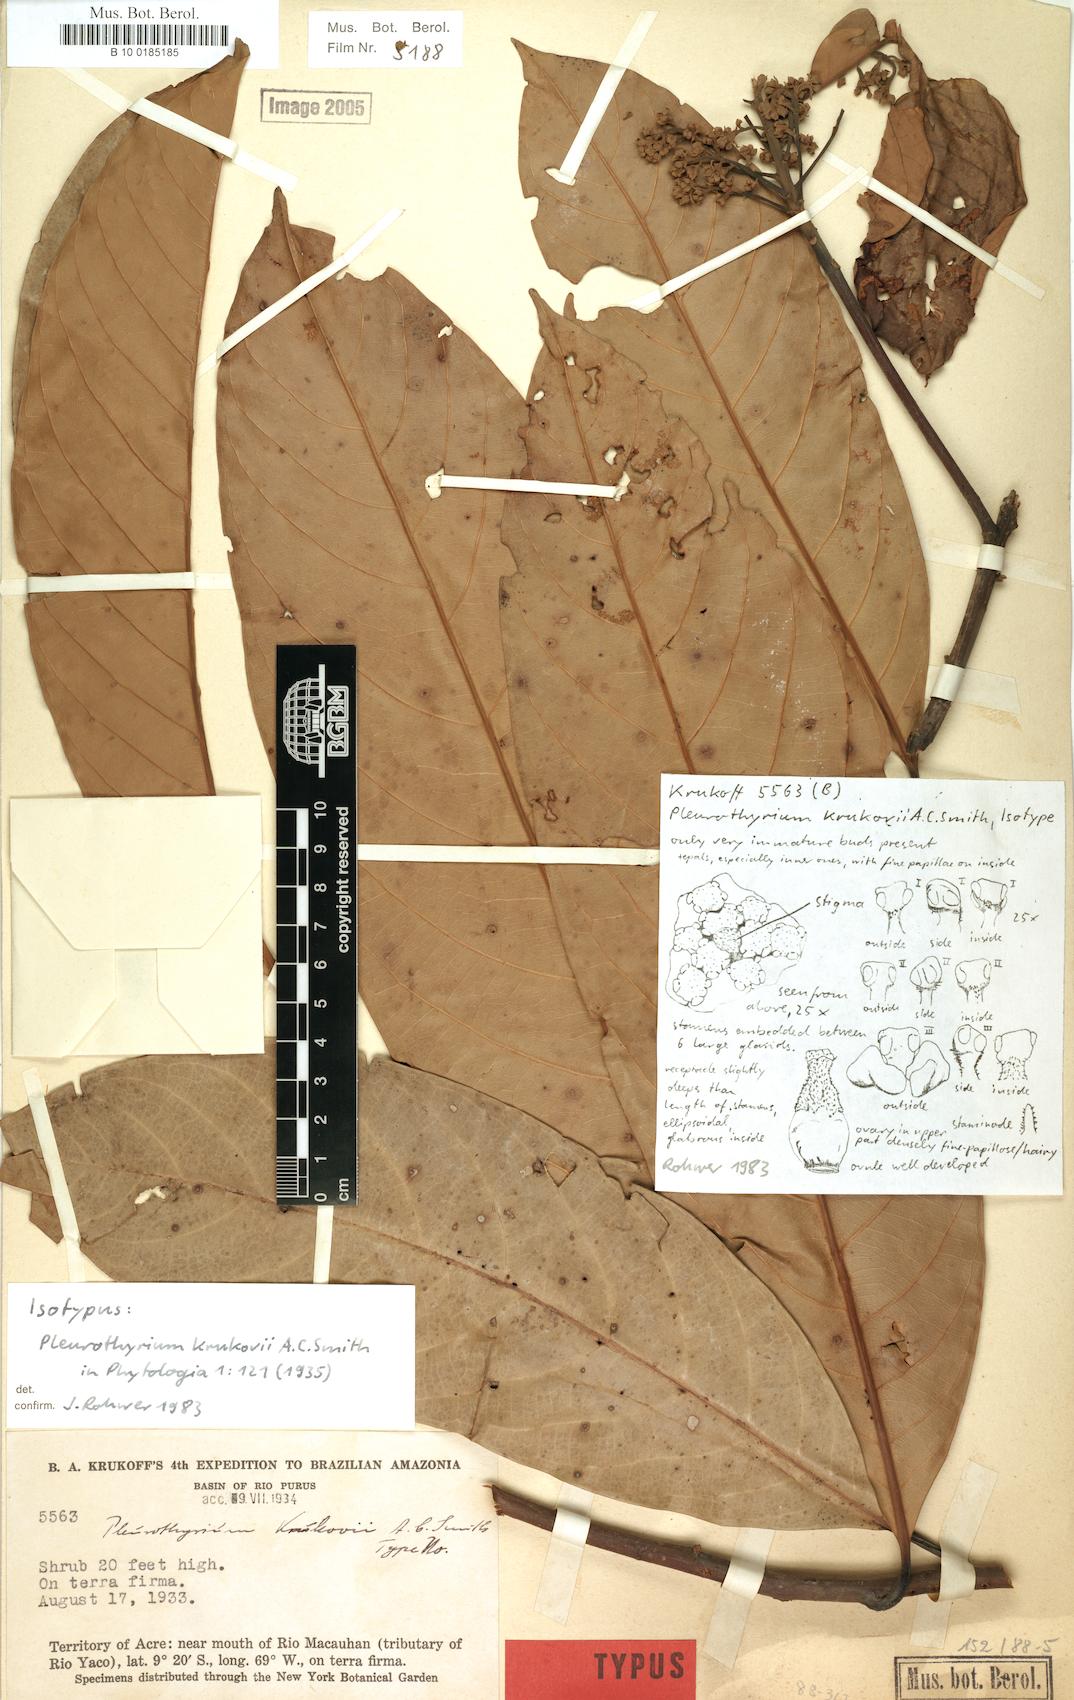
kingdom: Plantae
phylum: Tracheophyta
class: Magnoliopsida
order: Laurales
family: Lauraceae
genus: Pleurothyrium
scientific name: Pleurothyrium poeppigii
